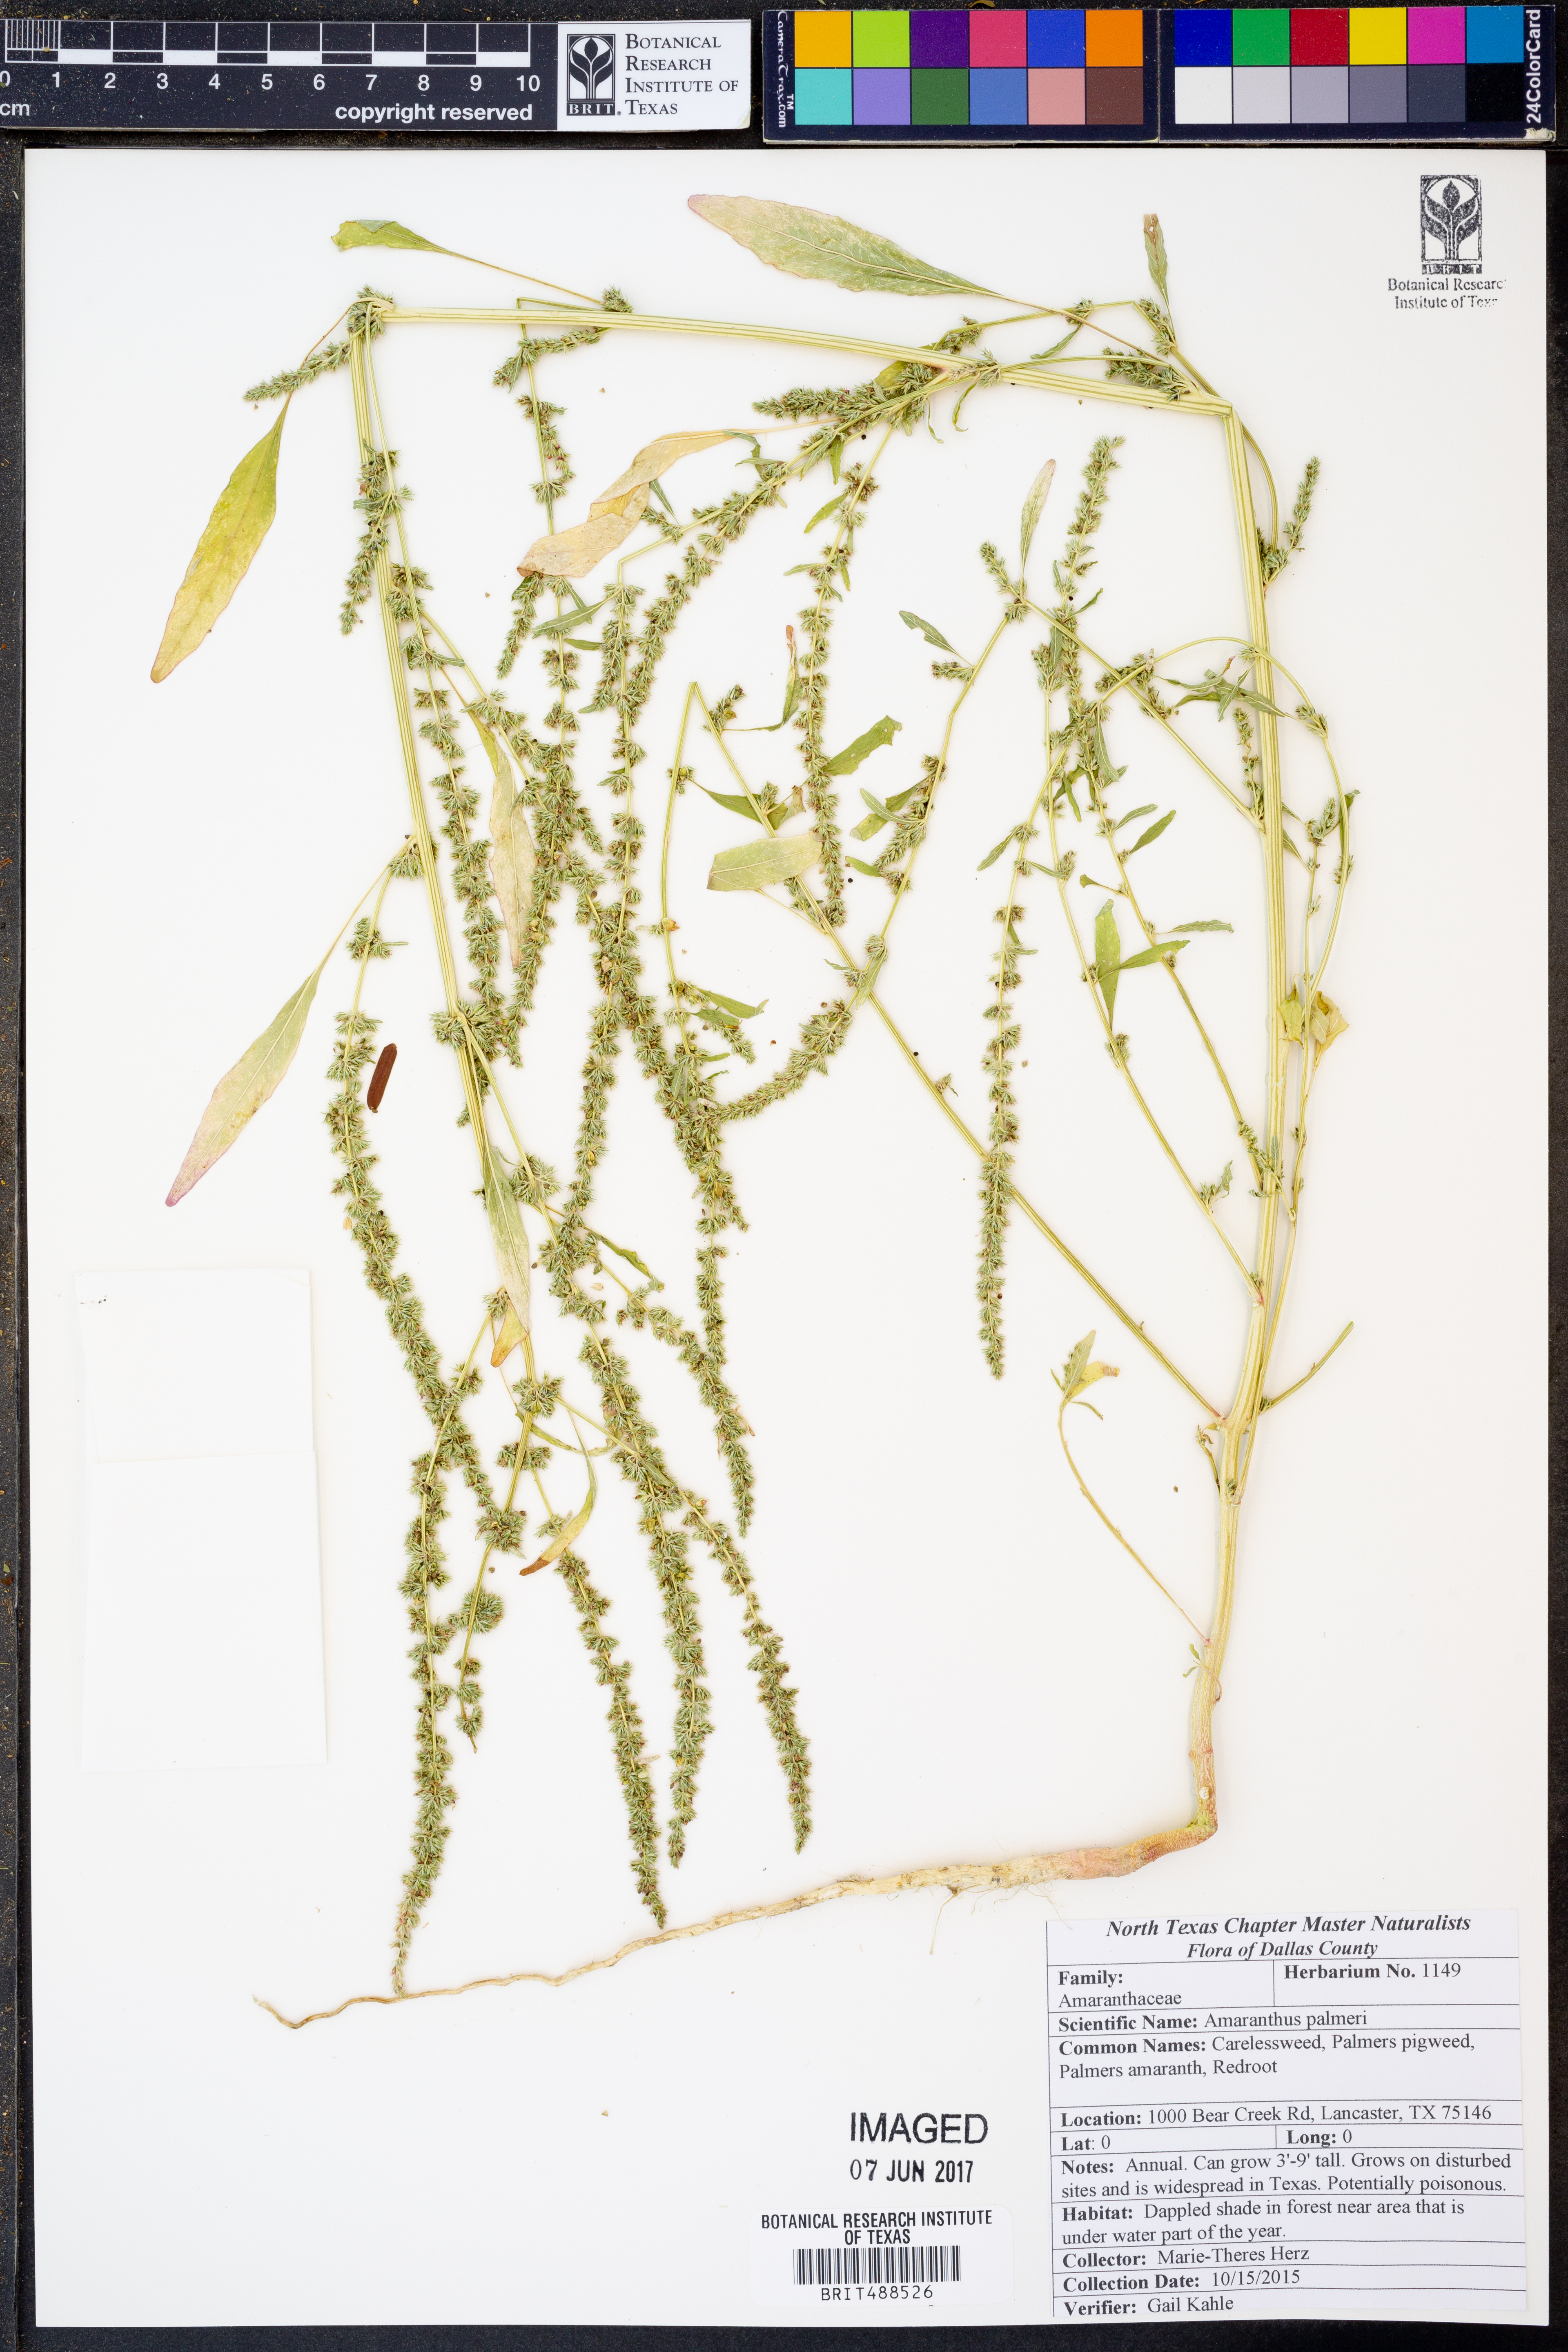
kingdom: Plantae
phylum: Tracheophyta
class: Magnoliopsida
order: Caryophyllales
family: Amaranthaceae
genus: Amaranthus
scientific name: Amaranthus palmeri
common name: Dioecious amaranth
